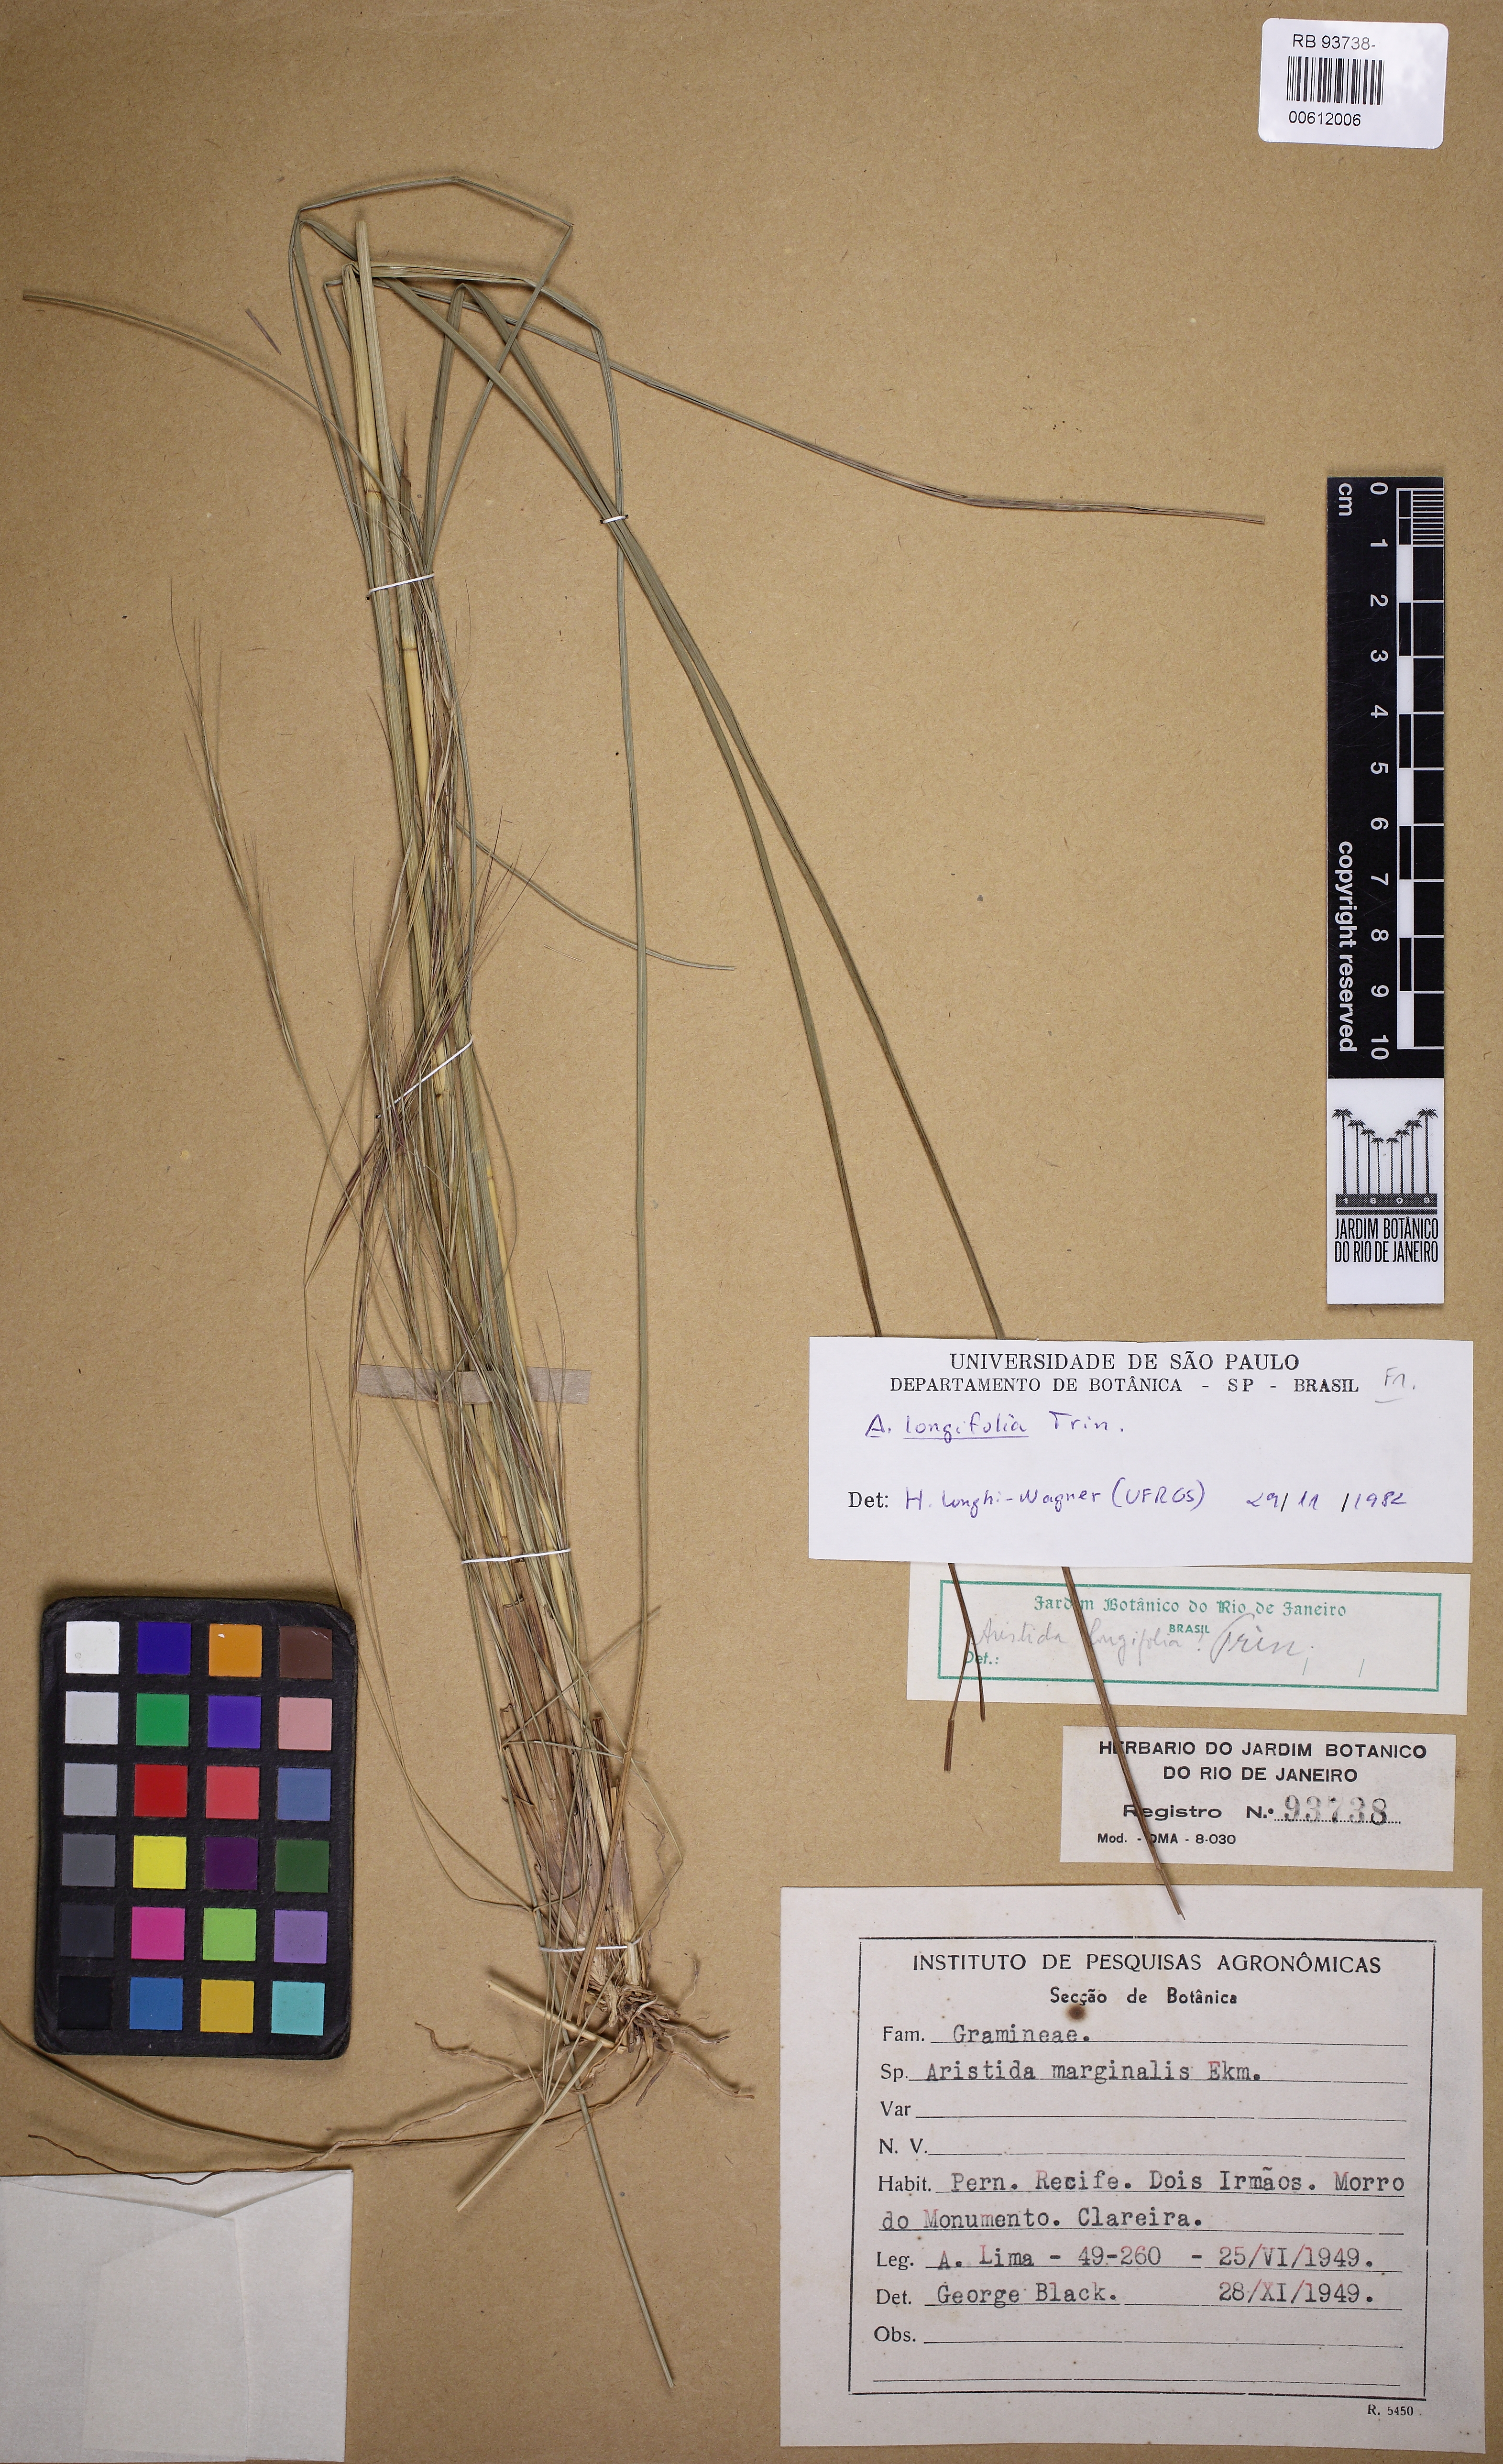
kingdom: Plantae
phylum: Tracheophyta
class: Liliopsida
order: Poales
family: Poaceae
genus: Aristida
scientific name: Aristida longifolia
